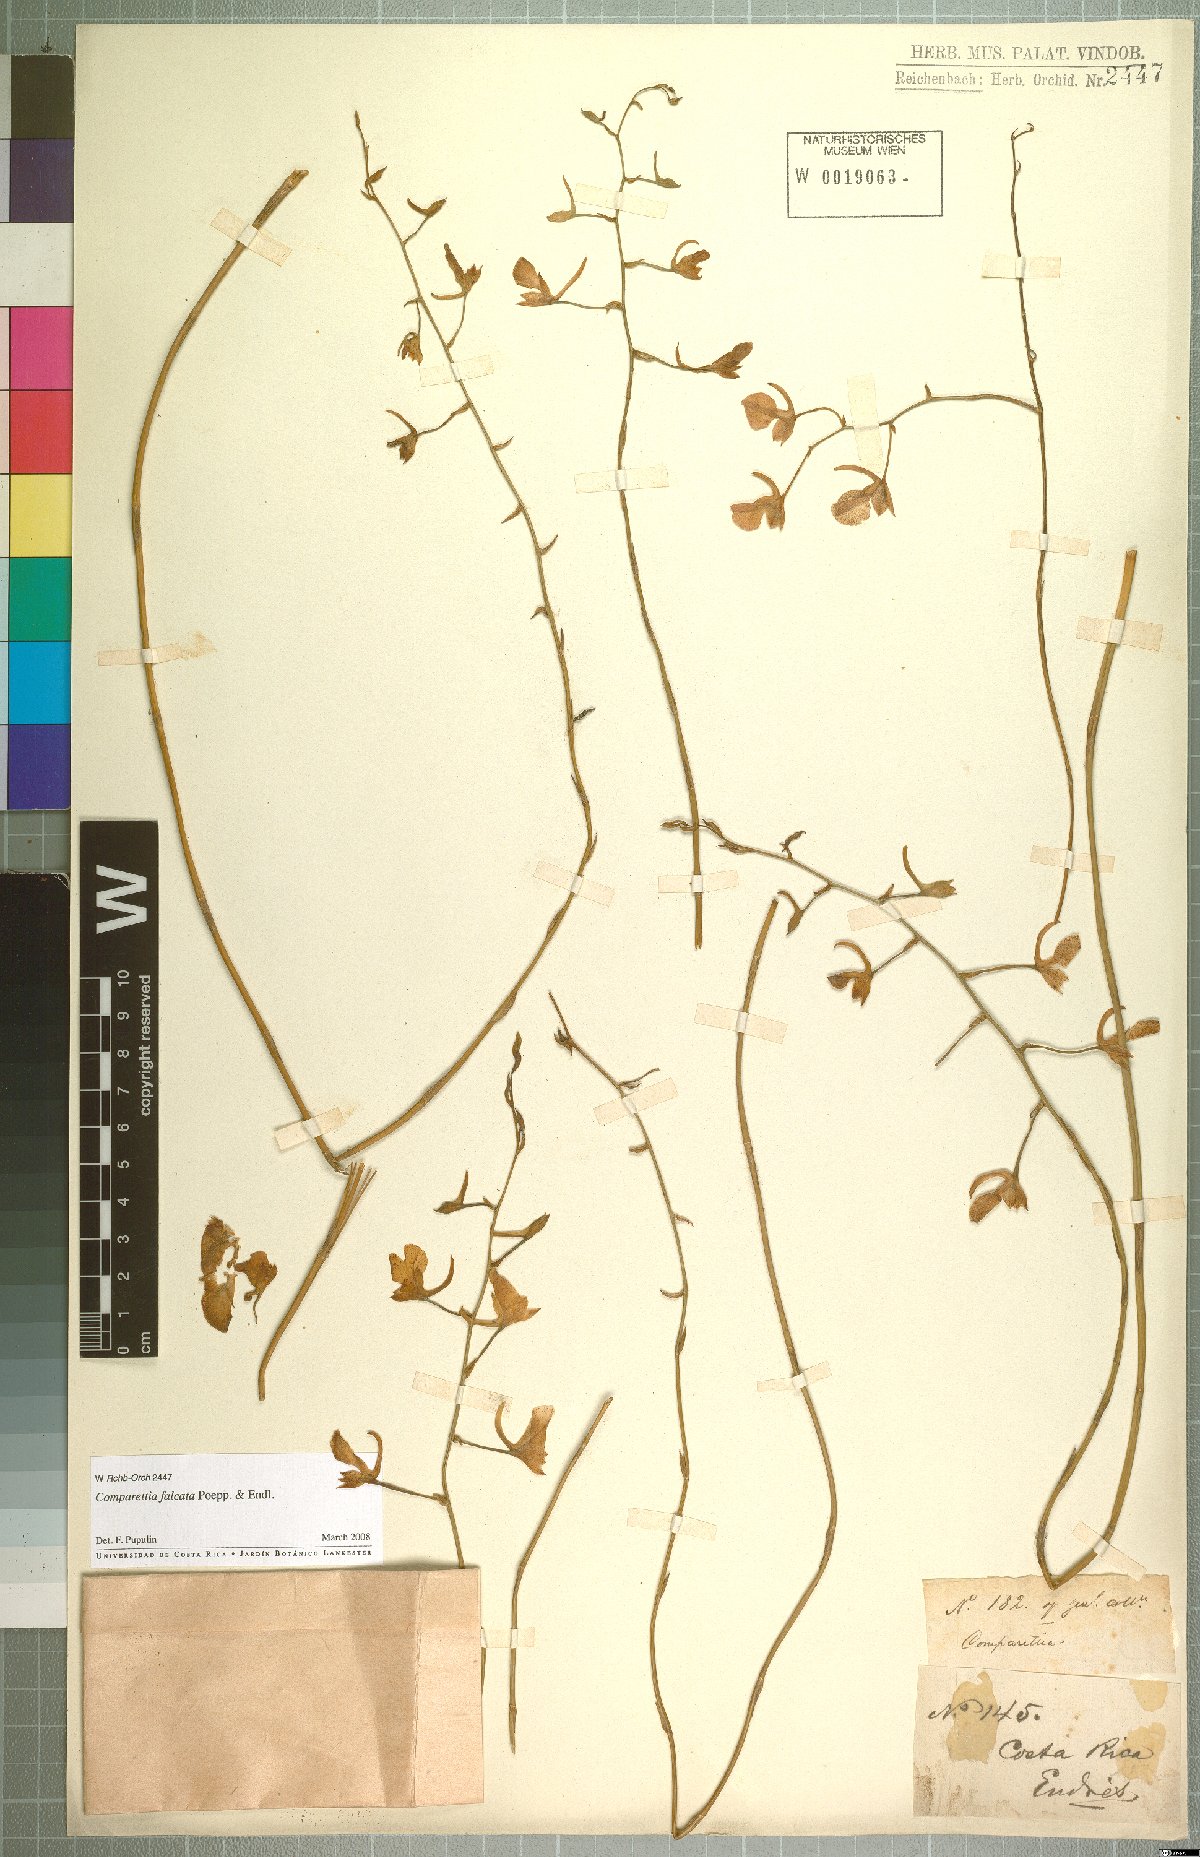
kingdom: Plantae
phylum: Tracheophyta
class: Liliopsida
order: Asparagales
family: Orchidaceae
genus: Comparettia
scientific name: Comparettia falcata
